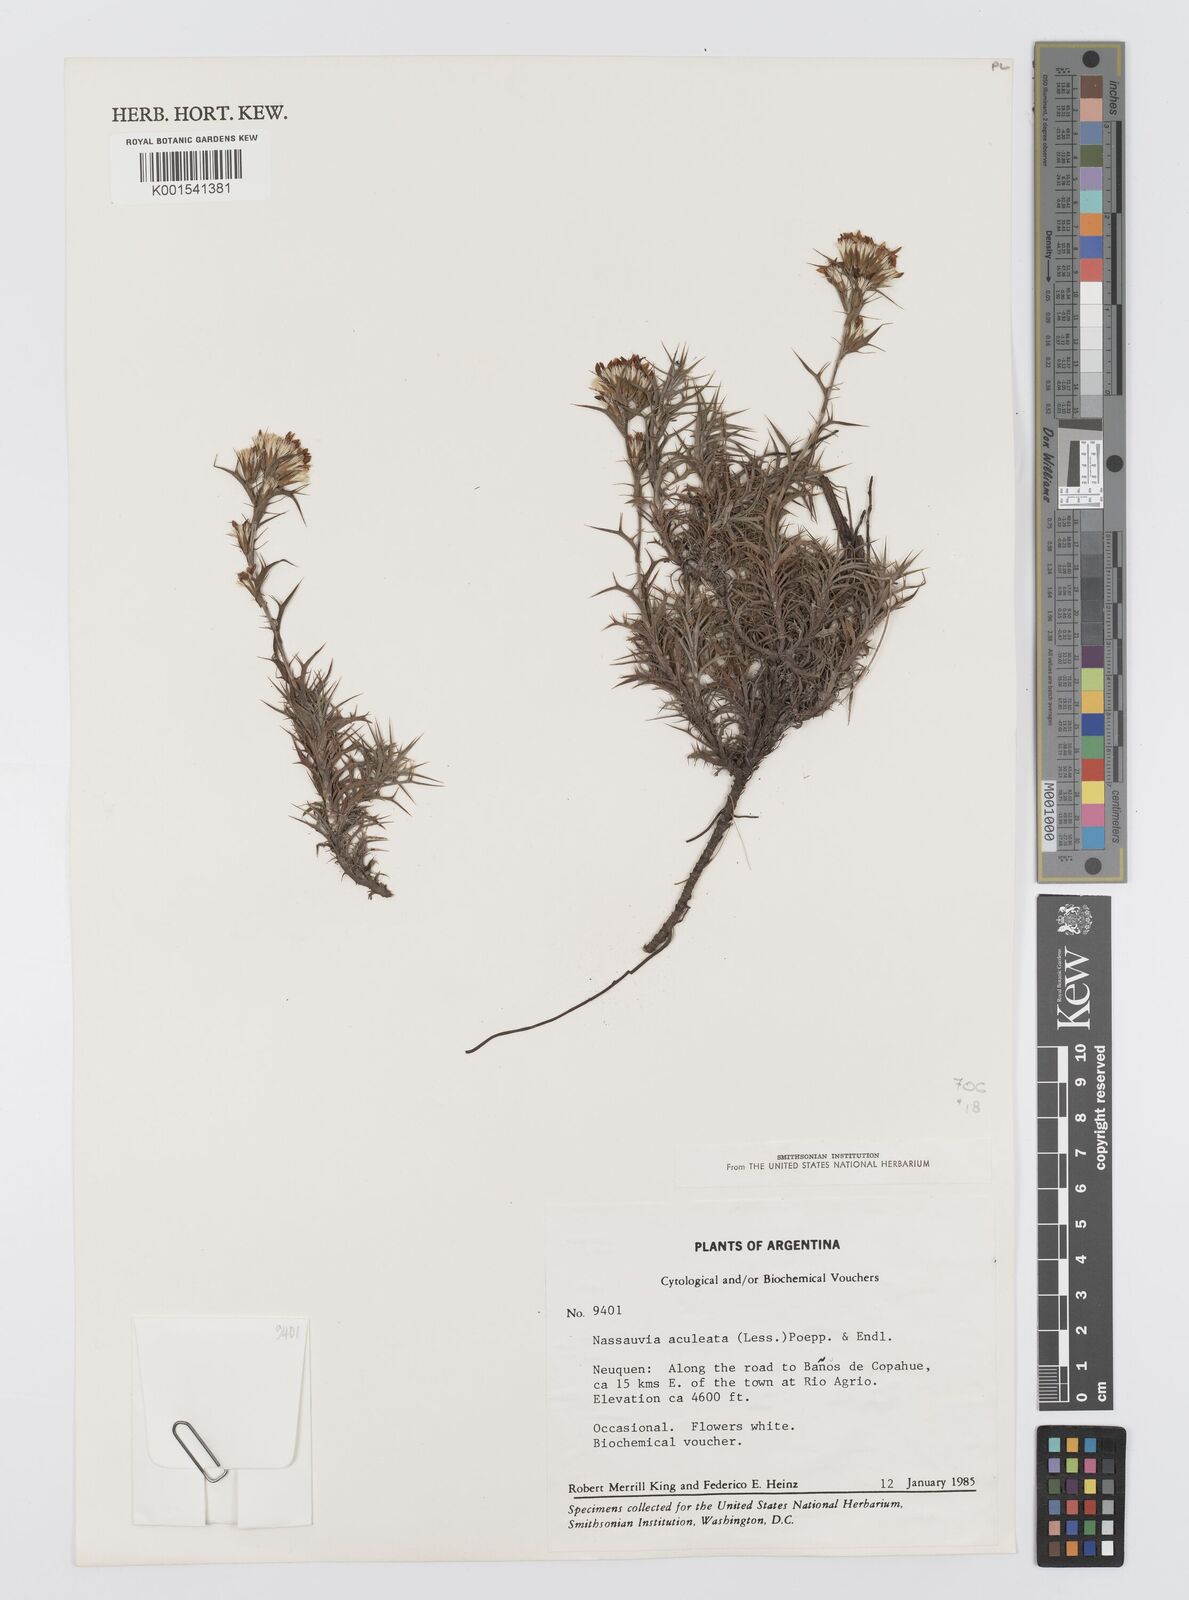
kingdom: Plantae
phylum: Tracheophyta
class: Magnoliopsida
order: Asterales
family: Asteraceae
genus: Nassauvia
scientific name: Nassauvia aculeata
